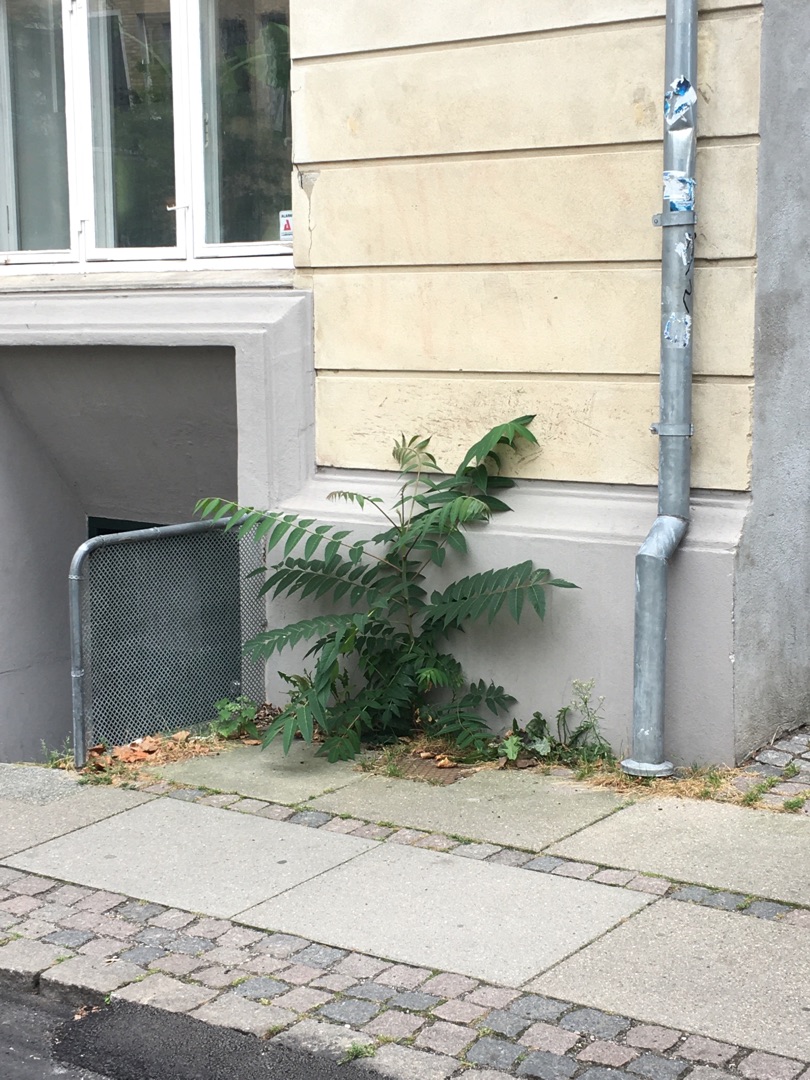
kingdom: Plantae
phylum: Tracheophyta
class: Magnoliopsida
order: Sapindales
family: Simaroubaceae
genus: Ailanthus
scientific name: Ailanthus altissima
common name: Skyrækker
